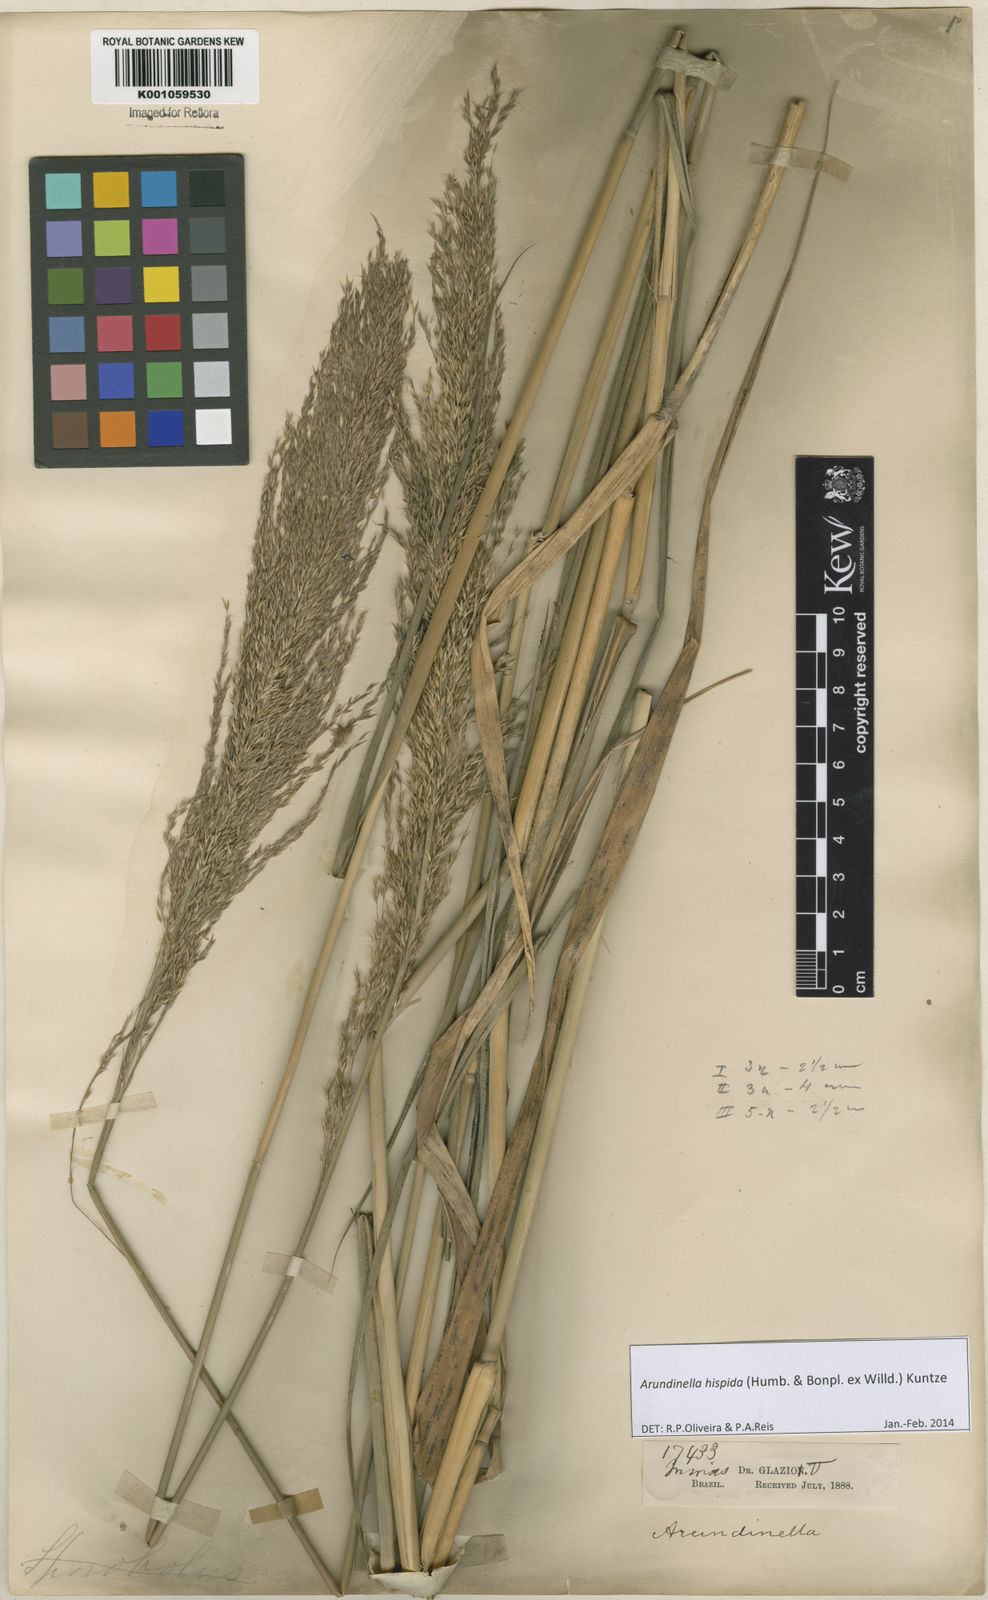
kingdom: Plantae
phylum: Tracheophyta
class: Liliopsida
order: Poales
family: Poaceae
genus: Arundinella
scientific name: Arundinella hispida
